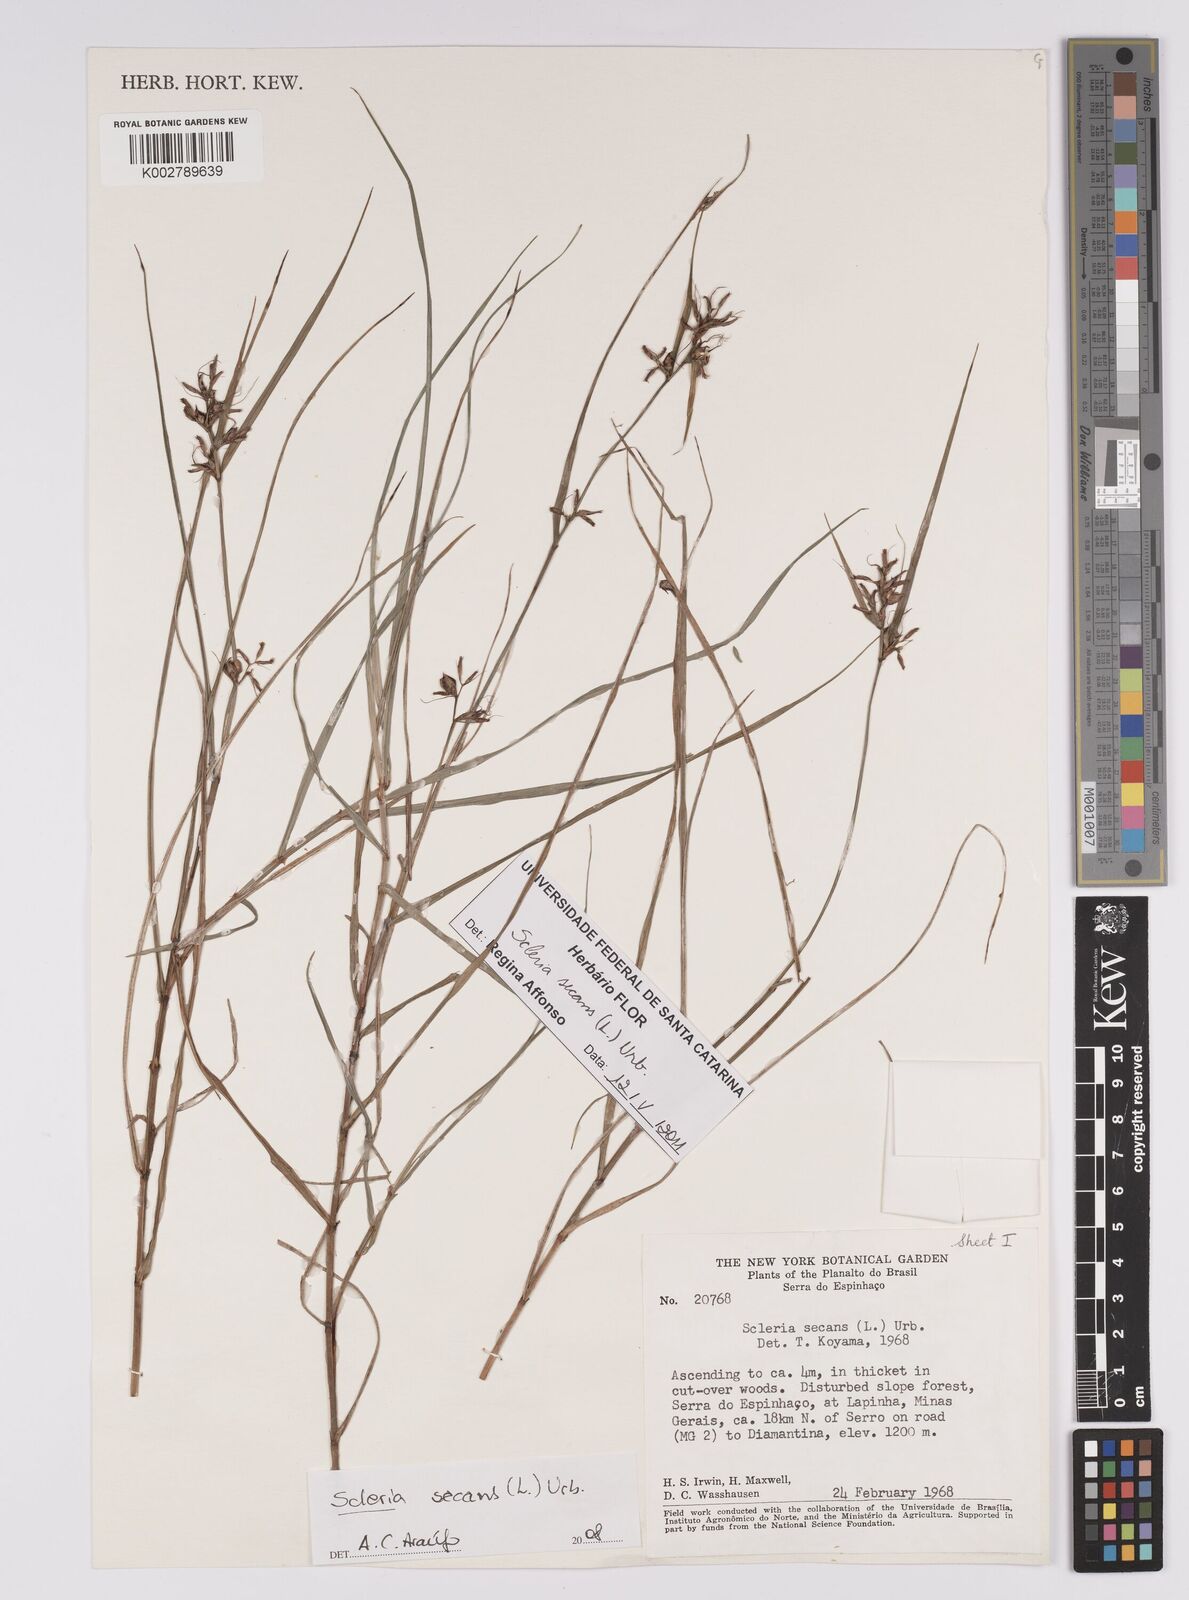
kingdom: Plantae
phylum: Tracheophyta
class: Liliopsida
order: Poales
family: Cyperaceae
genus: Scleria
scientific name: Scleria secans
